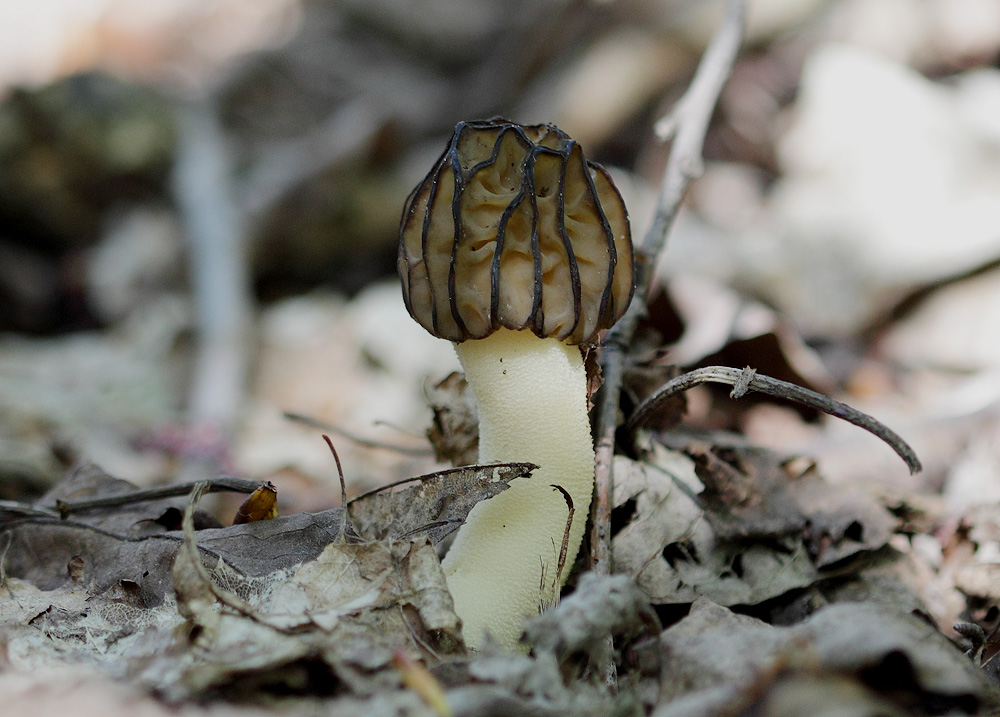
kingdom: Fungi
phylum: Ascomycota
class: Pezizomycetes
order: Pezizales
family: Morchellaceae
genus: Morchella
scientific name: Morchella semilibera
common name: hætte-morkel
